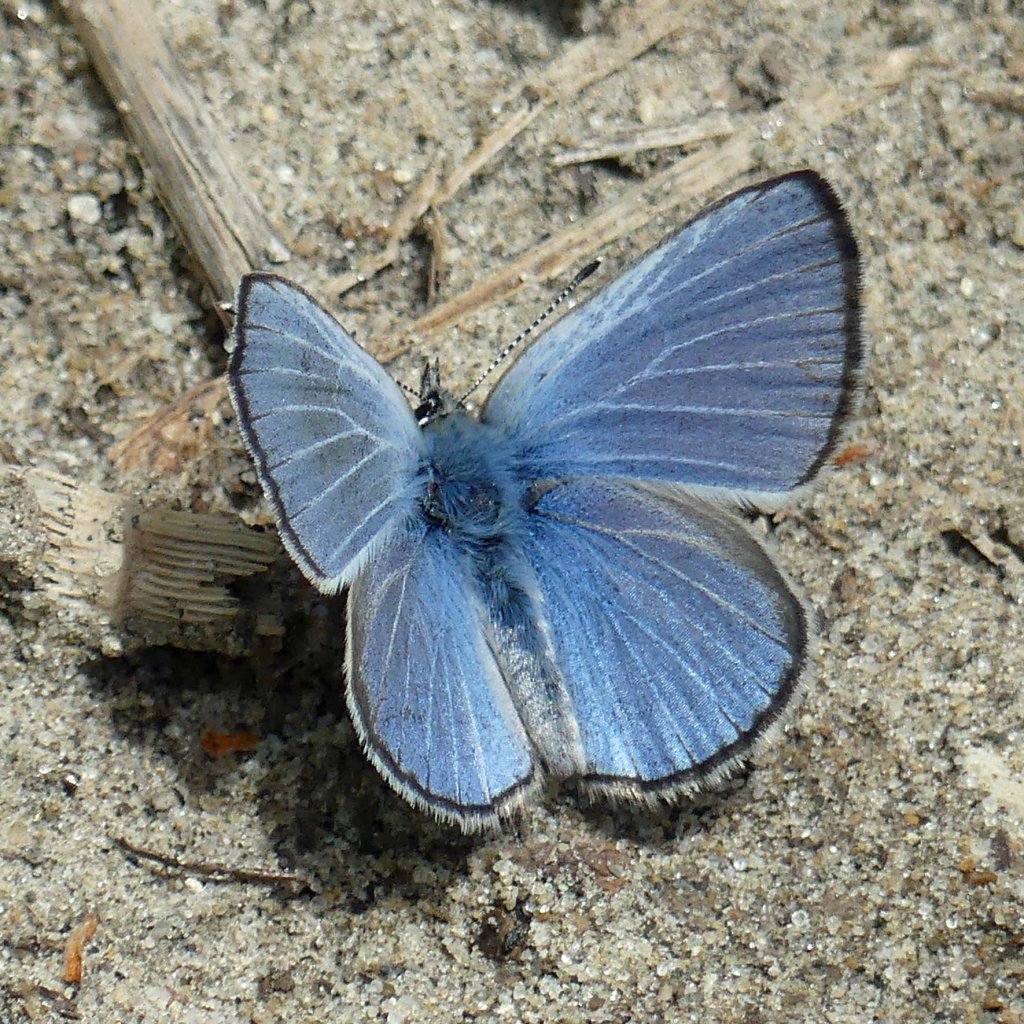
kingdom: Animalia
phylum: Arthropoda
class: Insecta
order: Lepidoptera
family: Lycaenidae
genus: Glaucopsyche
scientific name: Glaucopsyche lygdamus
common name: Silvery Blue
